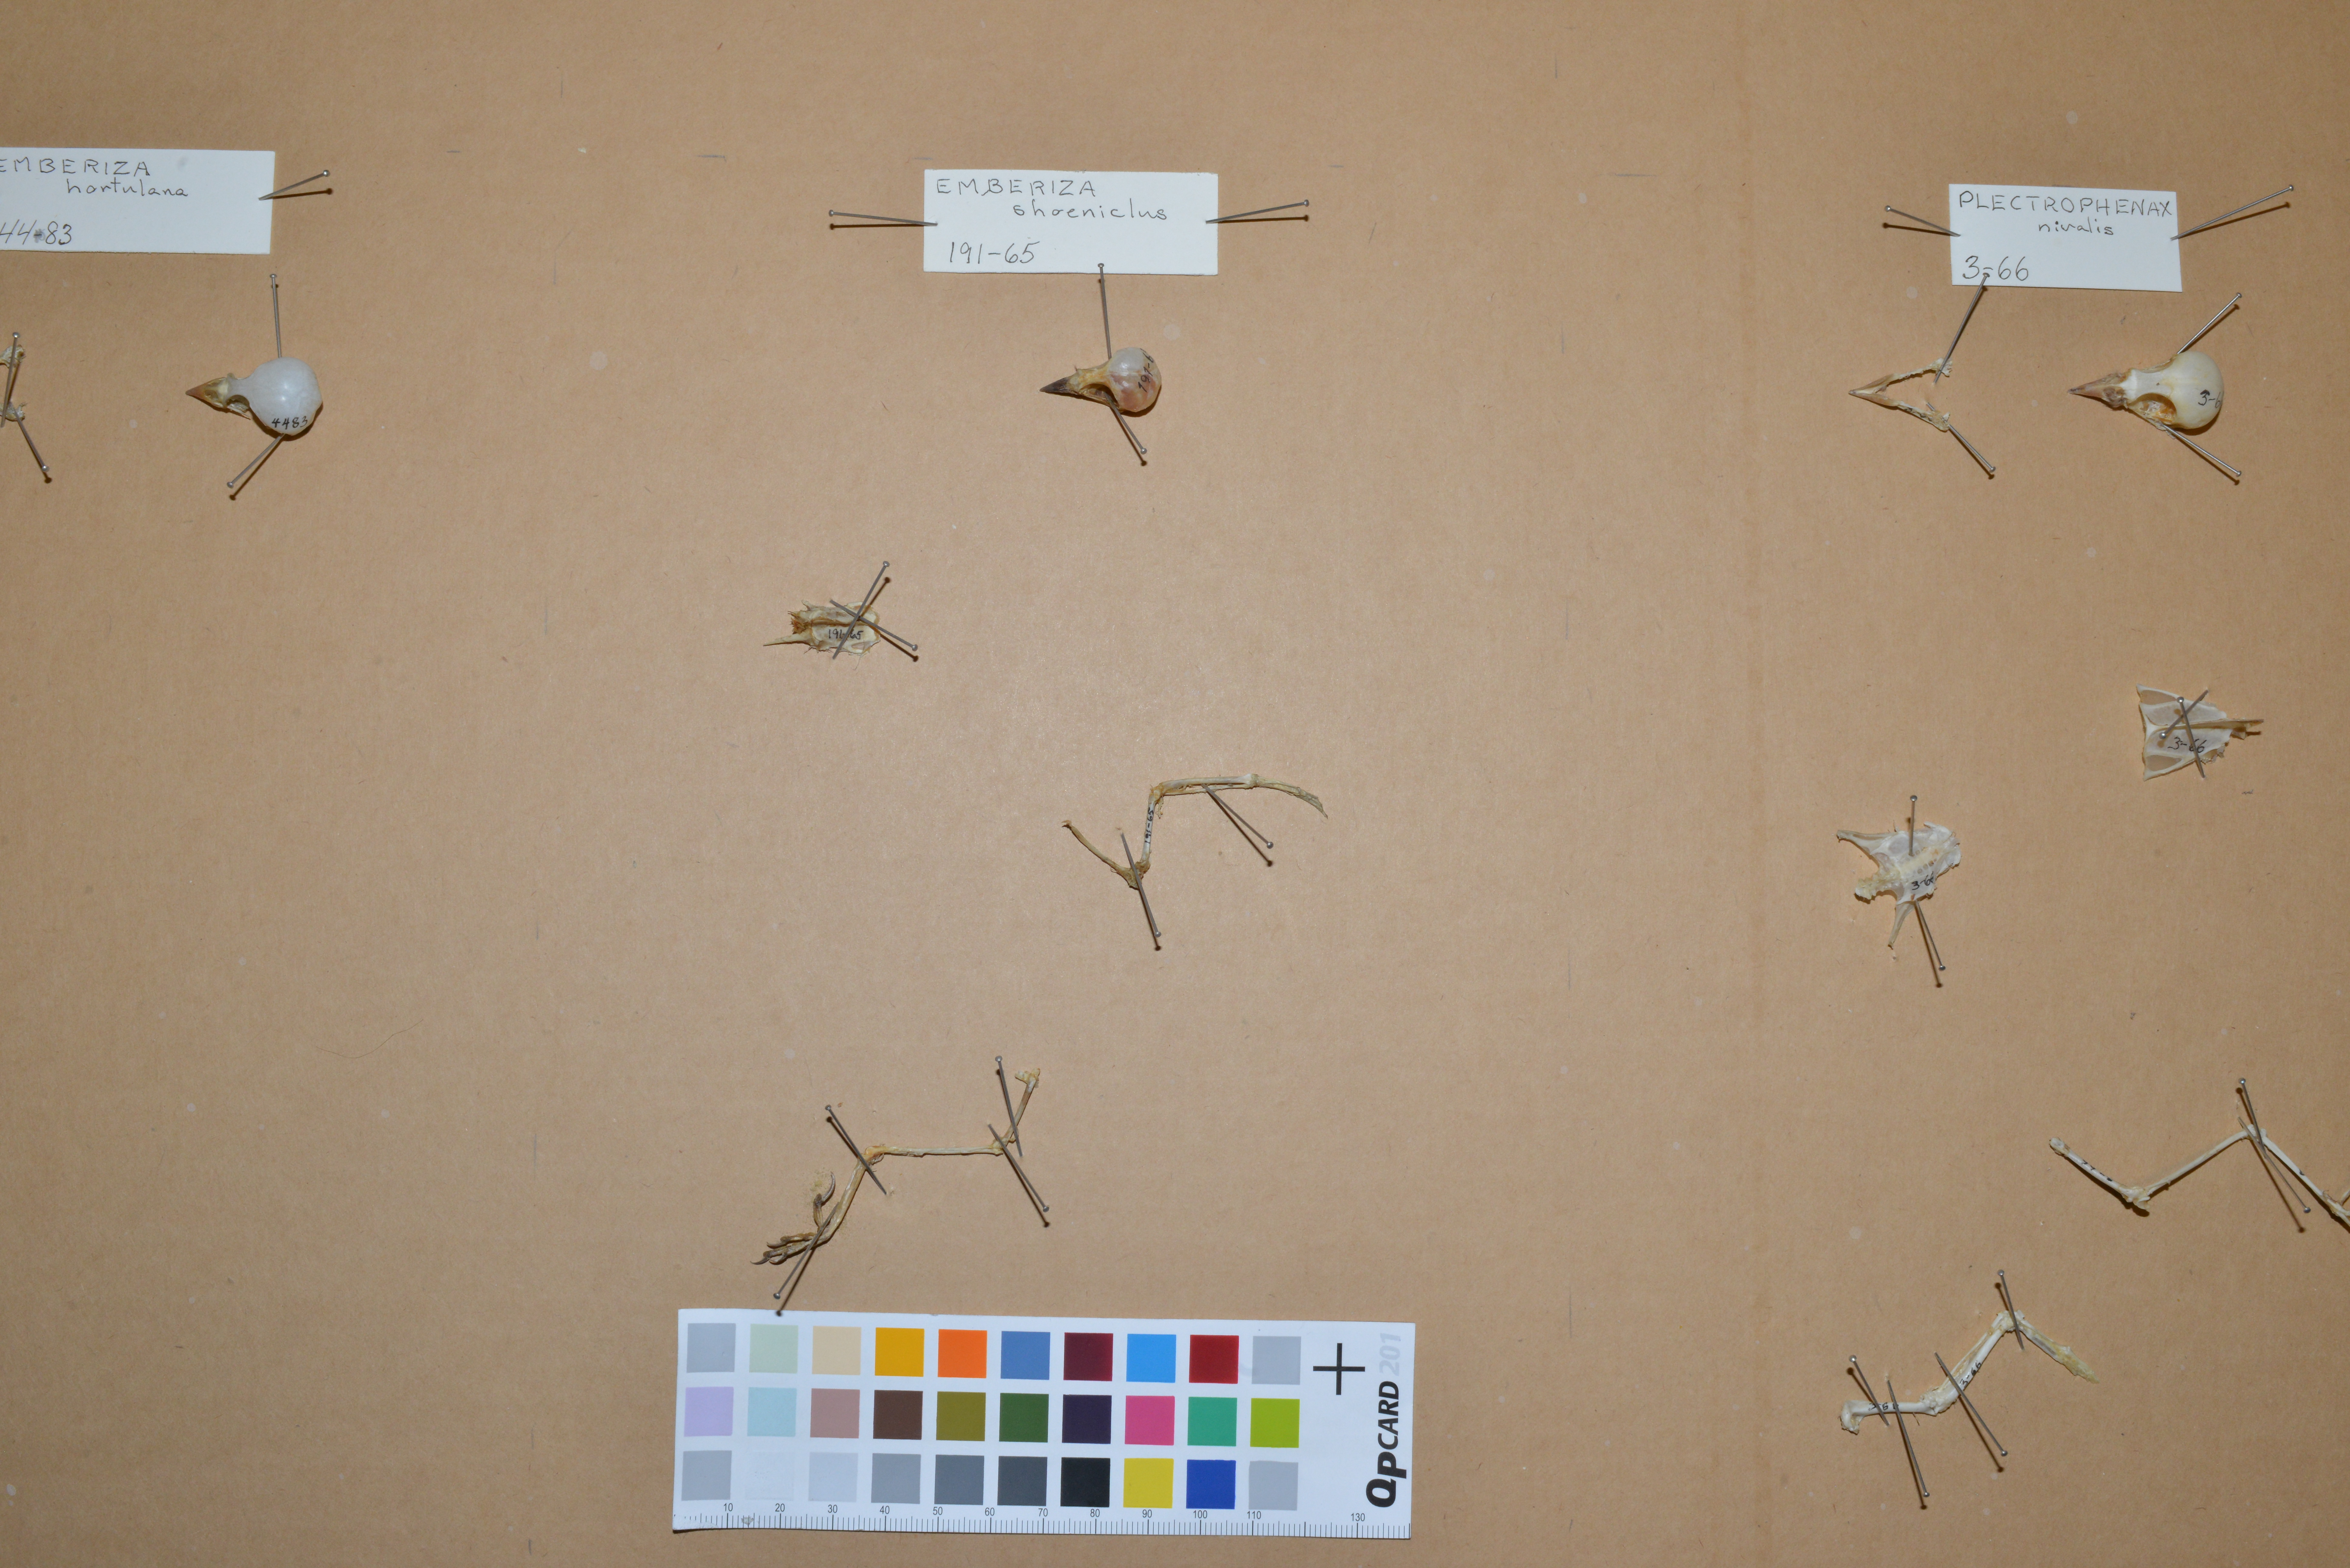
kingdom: Animalia
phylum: Chordata
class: Aves
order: Passeriformes
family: Emberizidae
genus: Emberiza
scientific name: Emberiza schoeniclus
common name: Reed bunting
